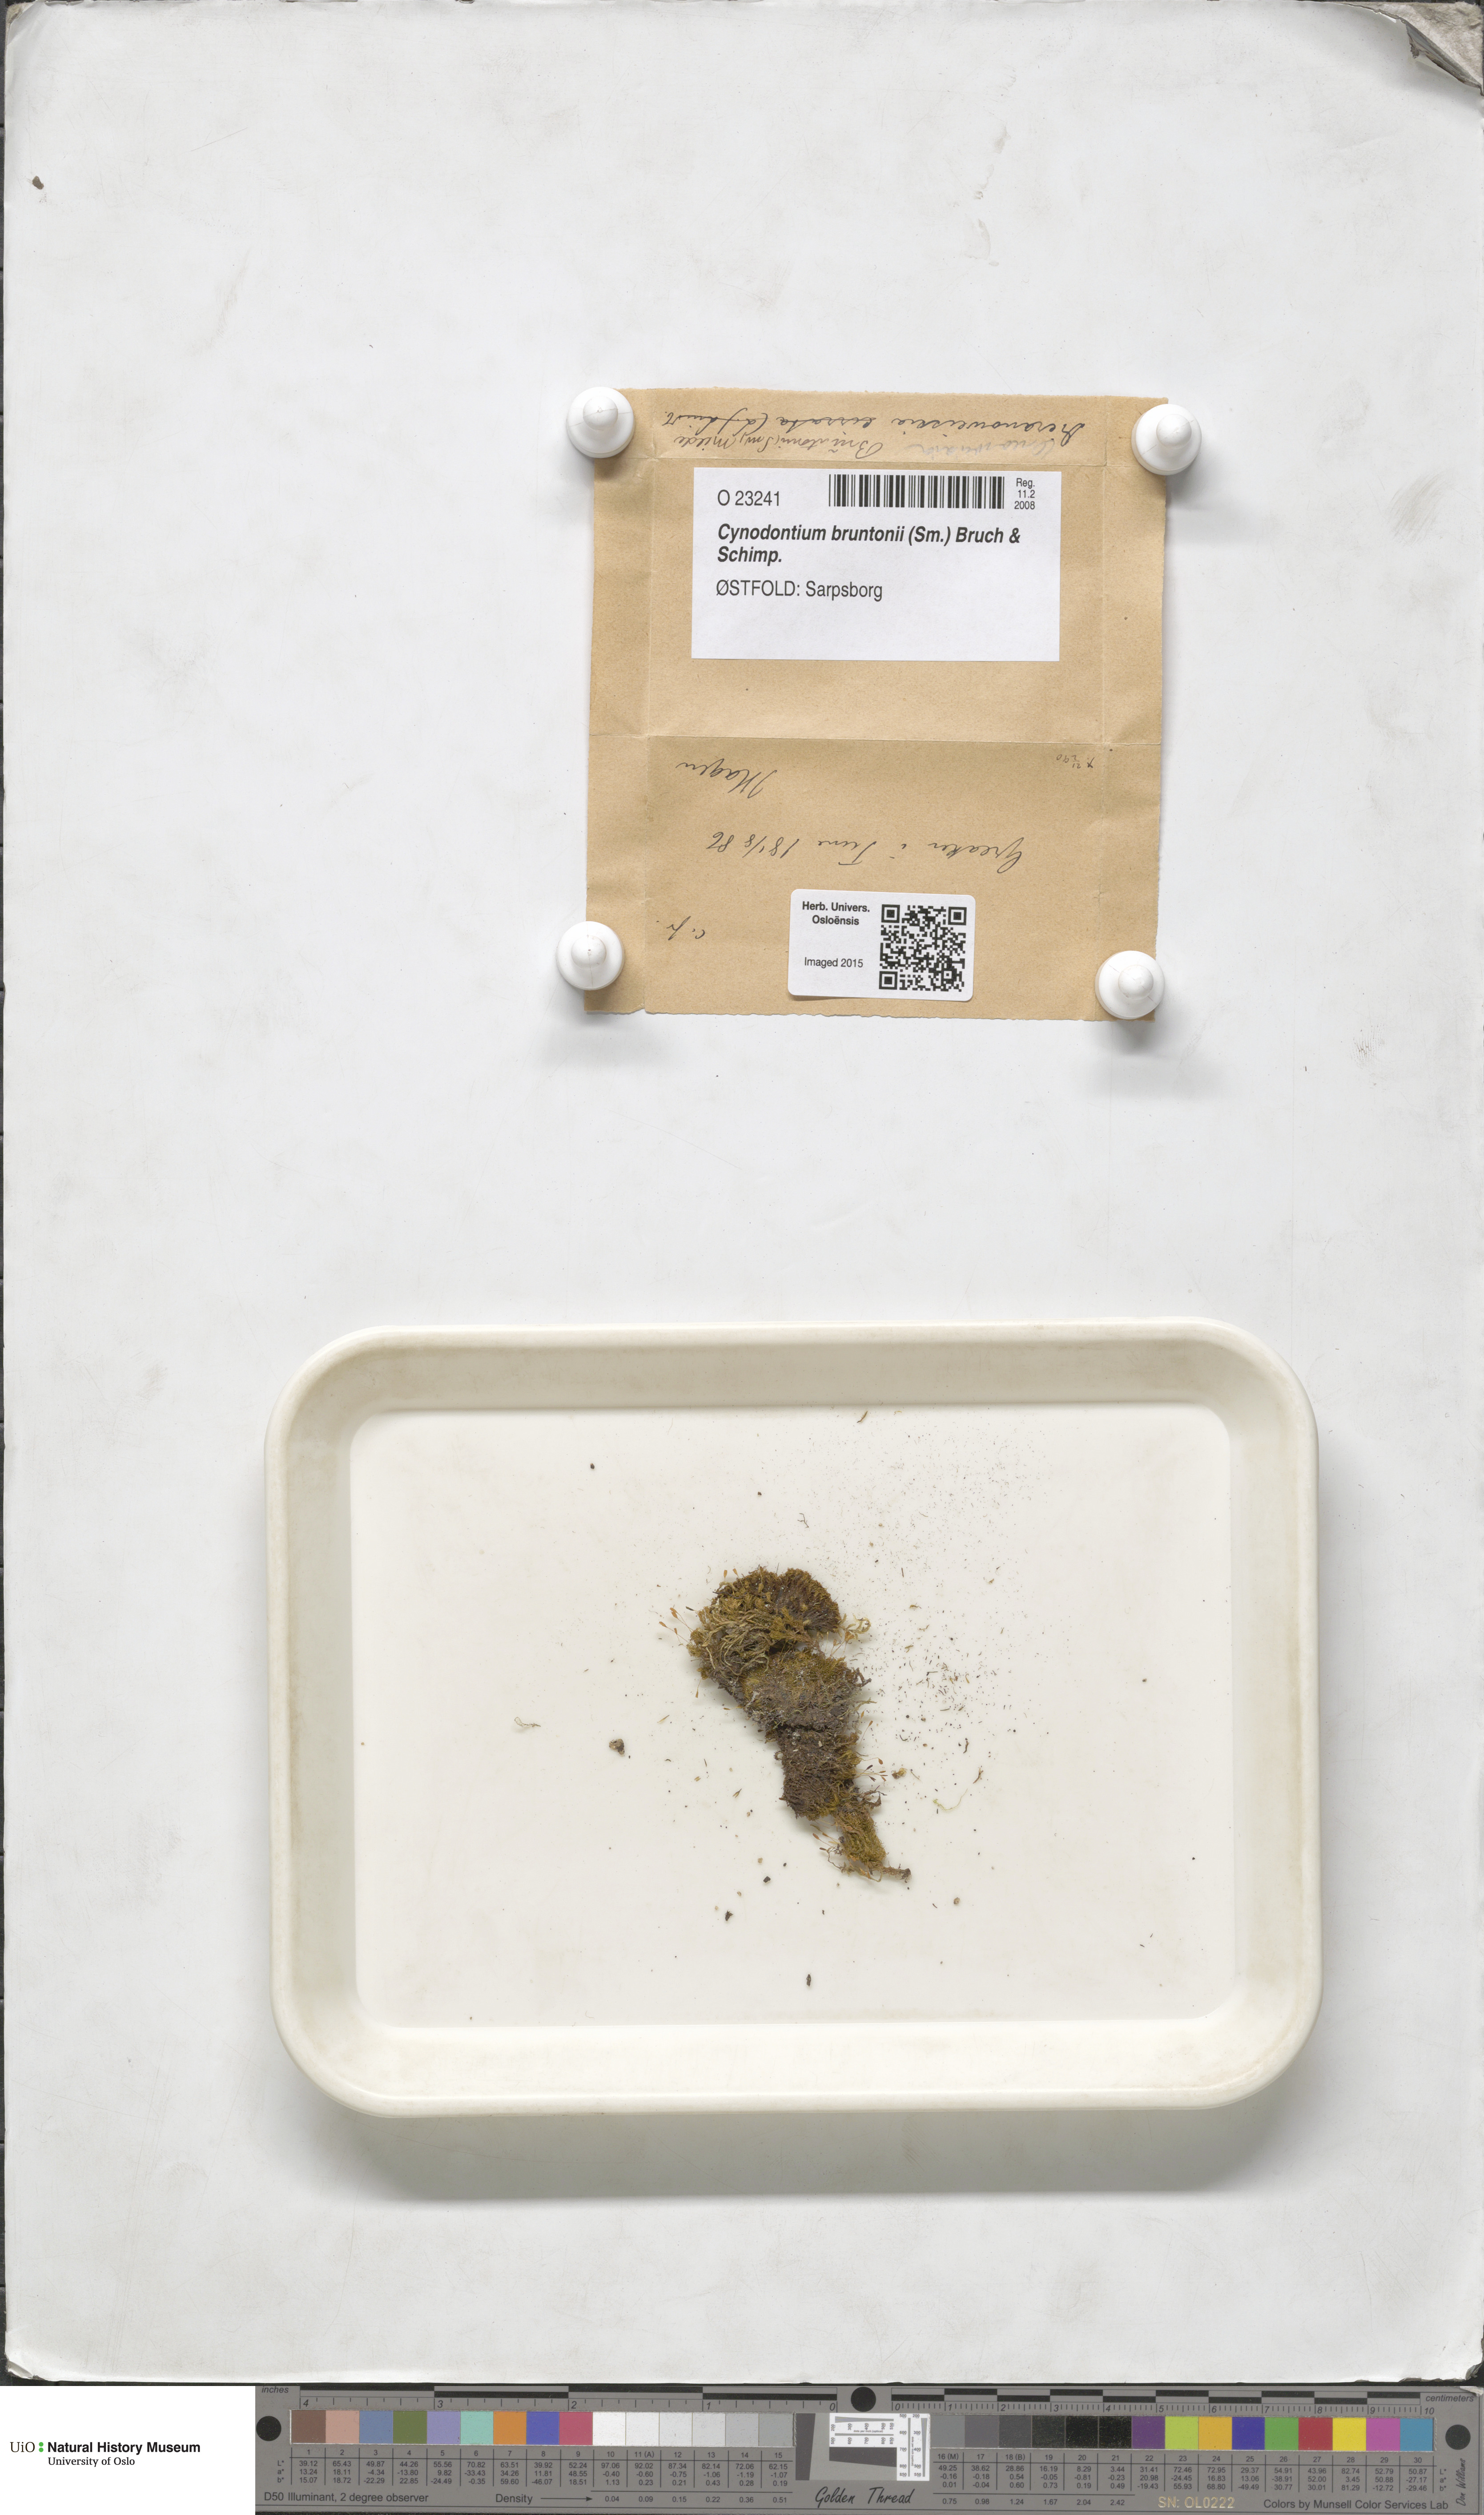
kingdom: Plantae
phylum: Bryophyta
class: Bryopsida
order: Dicranales
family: Rhabdoweisiaceae
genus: Cynodontium
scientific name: Cynodontium bruntonii
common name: Brunton's dog-tooth
